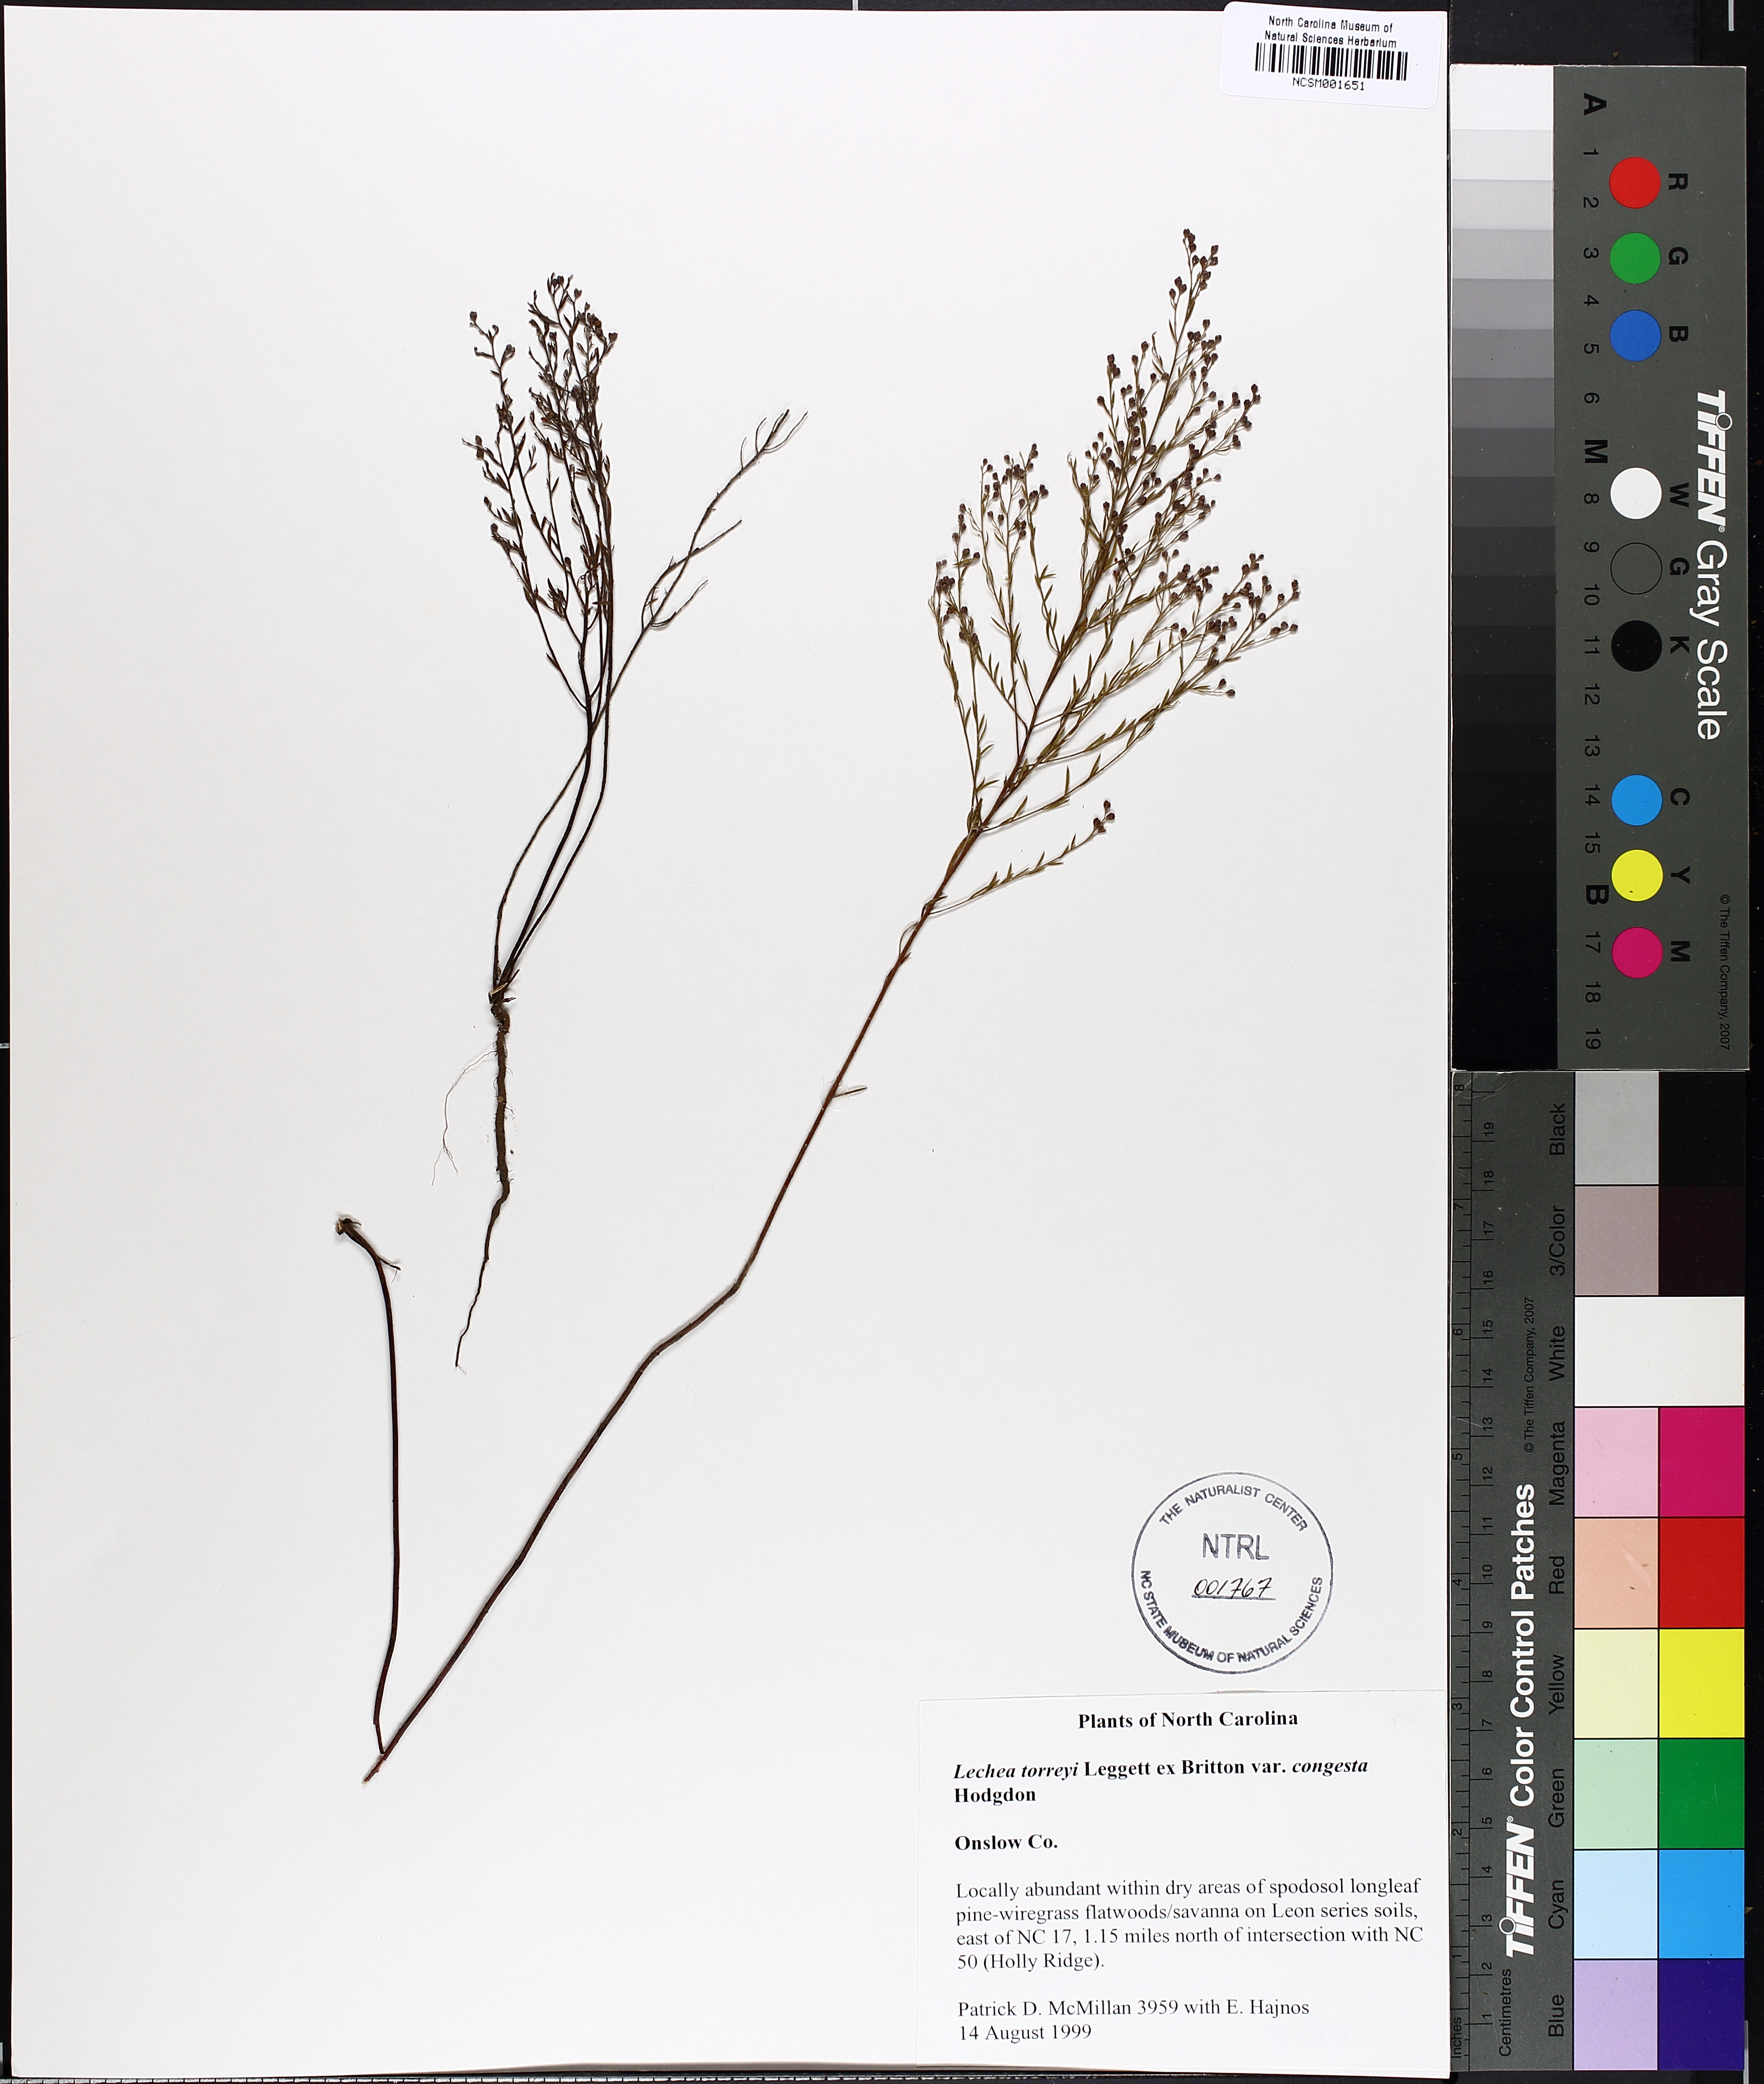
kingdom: Plantae
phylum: Tracheophyta
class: Magnoliopsida
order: Malvales
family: Cistaceae
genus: Lechea
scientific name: Lechea torreyi
